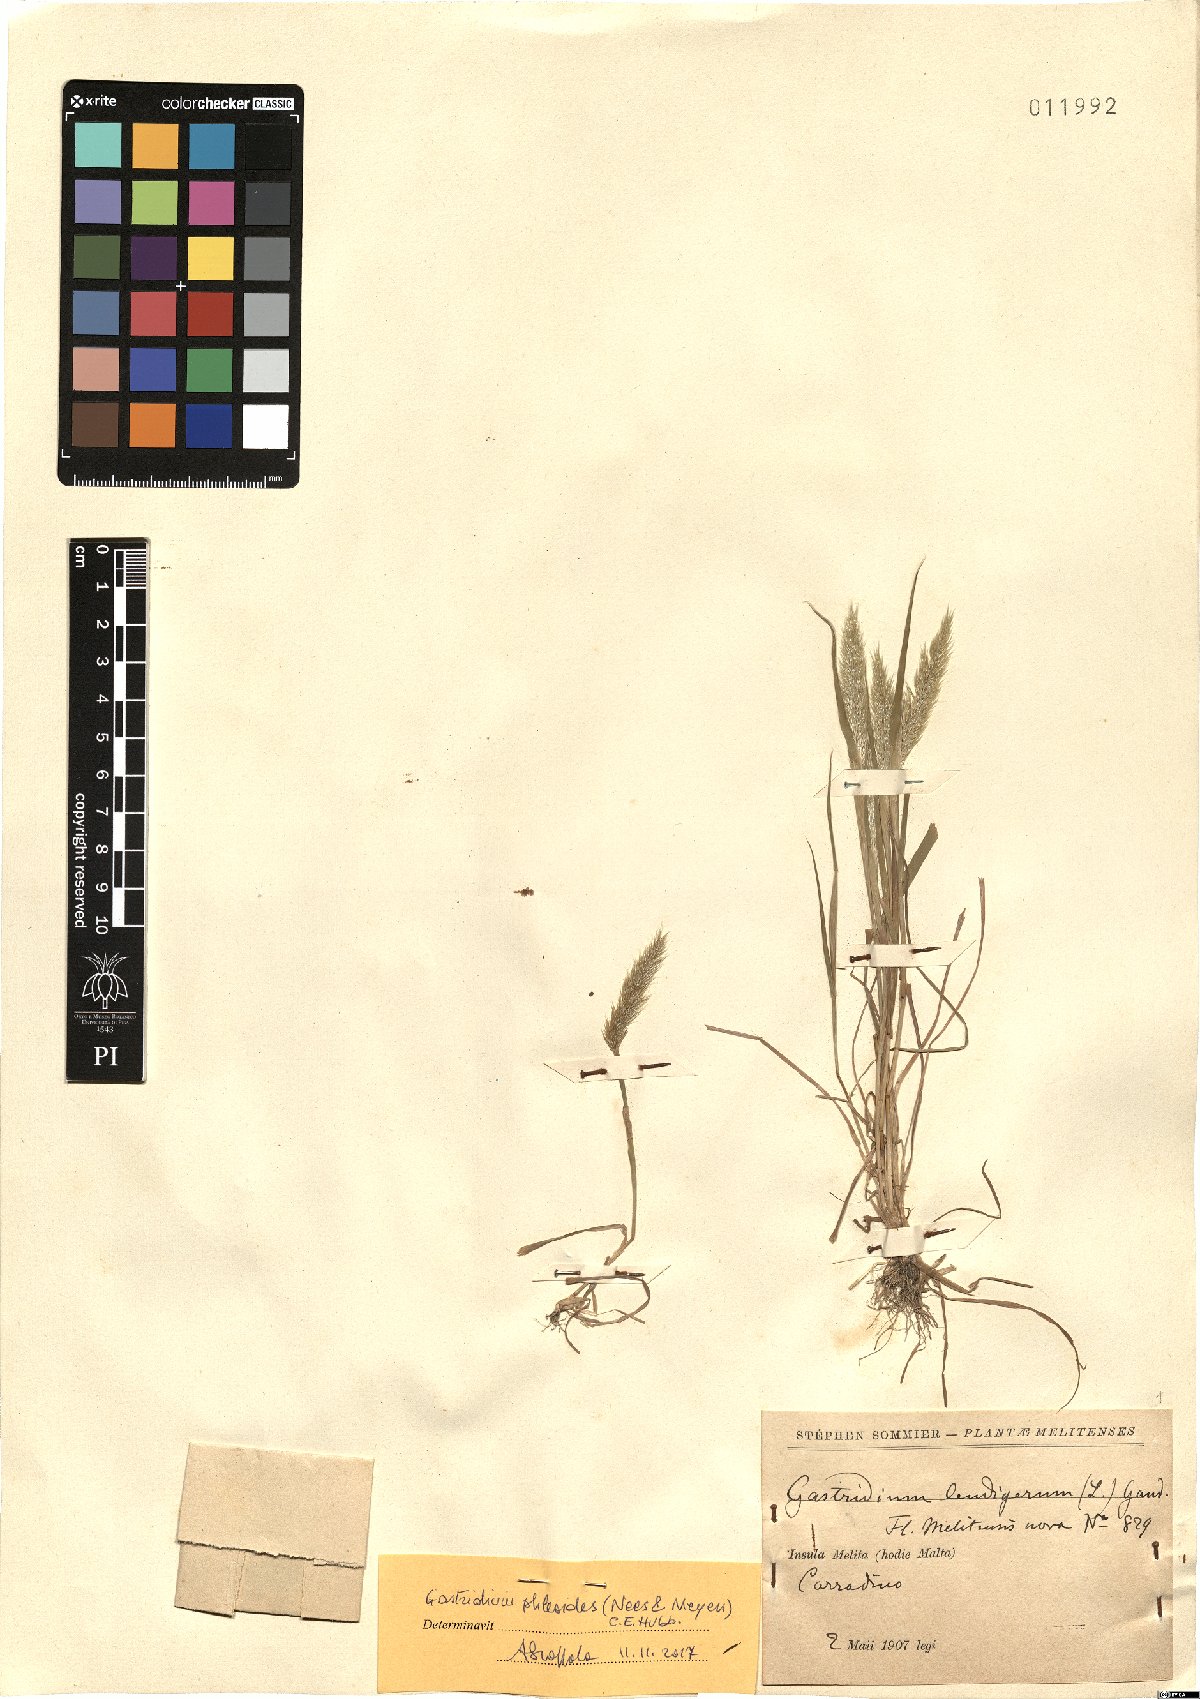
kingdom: Plantae
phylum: Tracheophyta
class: Liliopsida
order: Poales
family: Poaceae
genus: Gastridium
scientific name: Gastridium phleoides
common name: Nit grass
